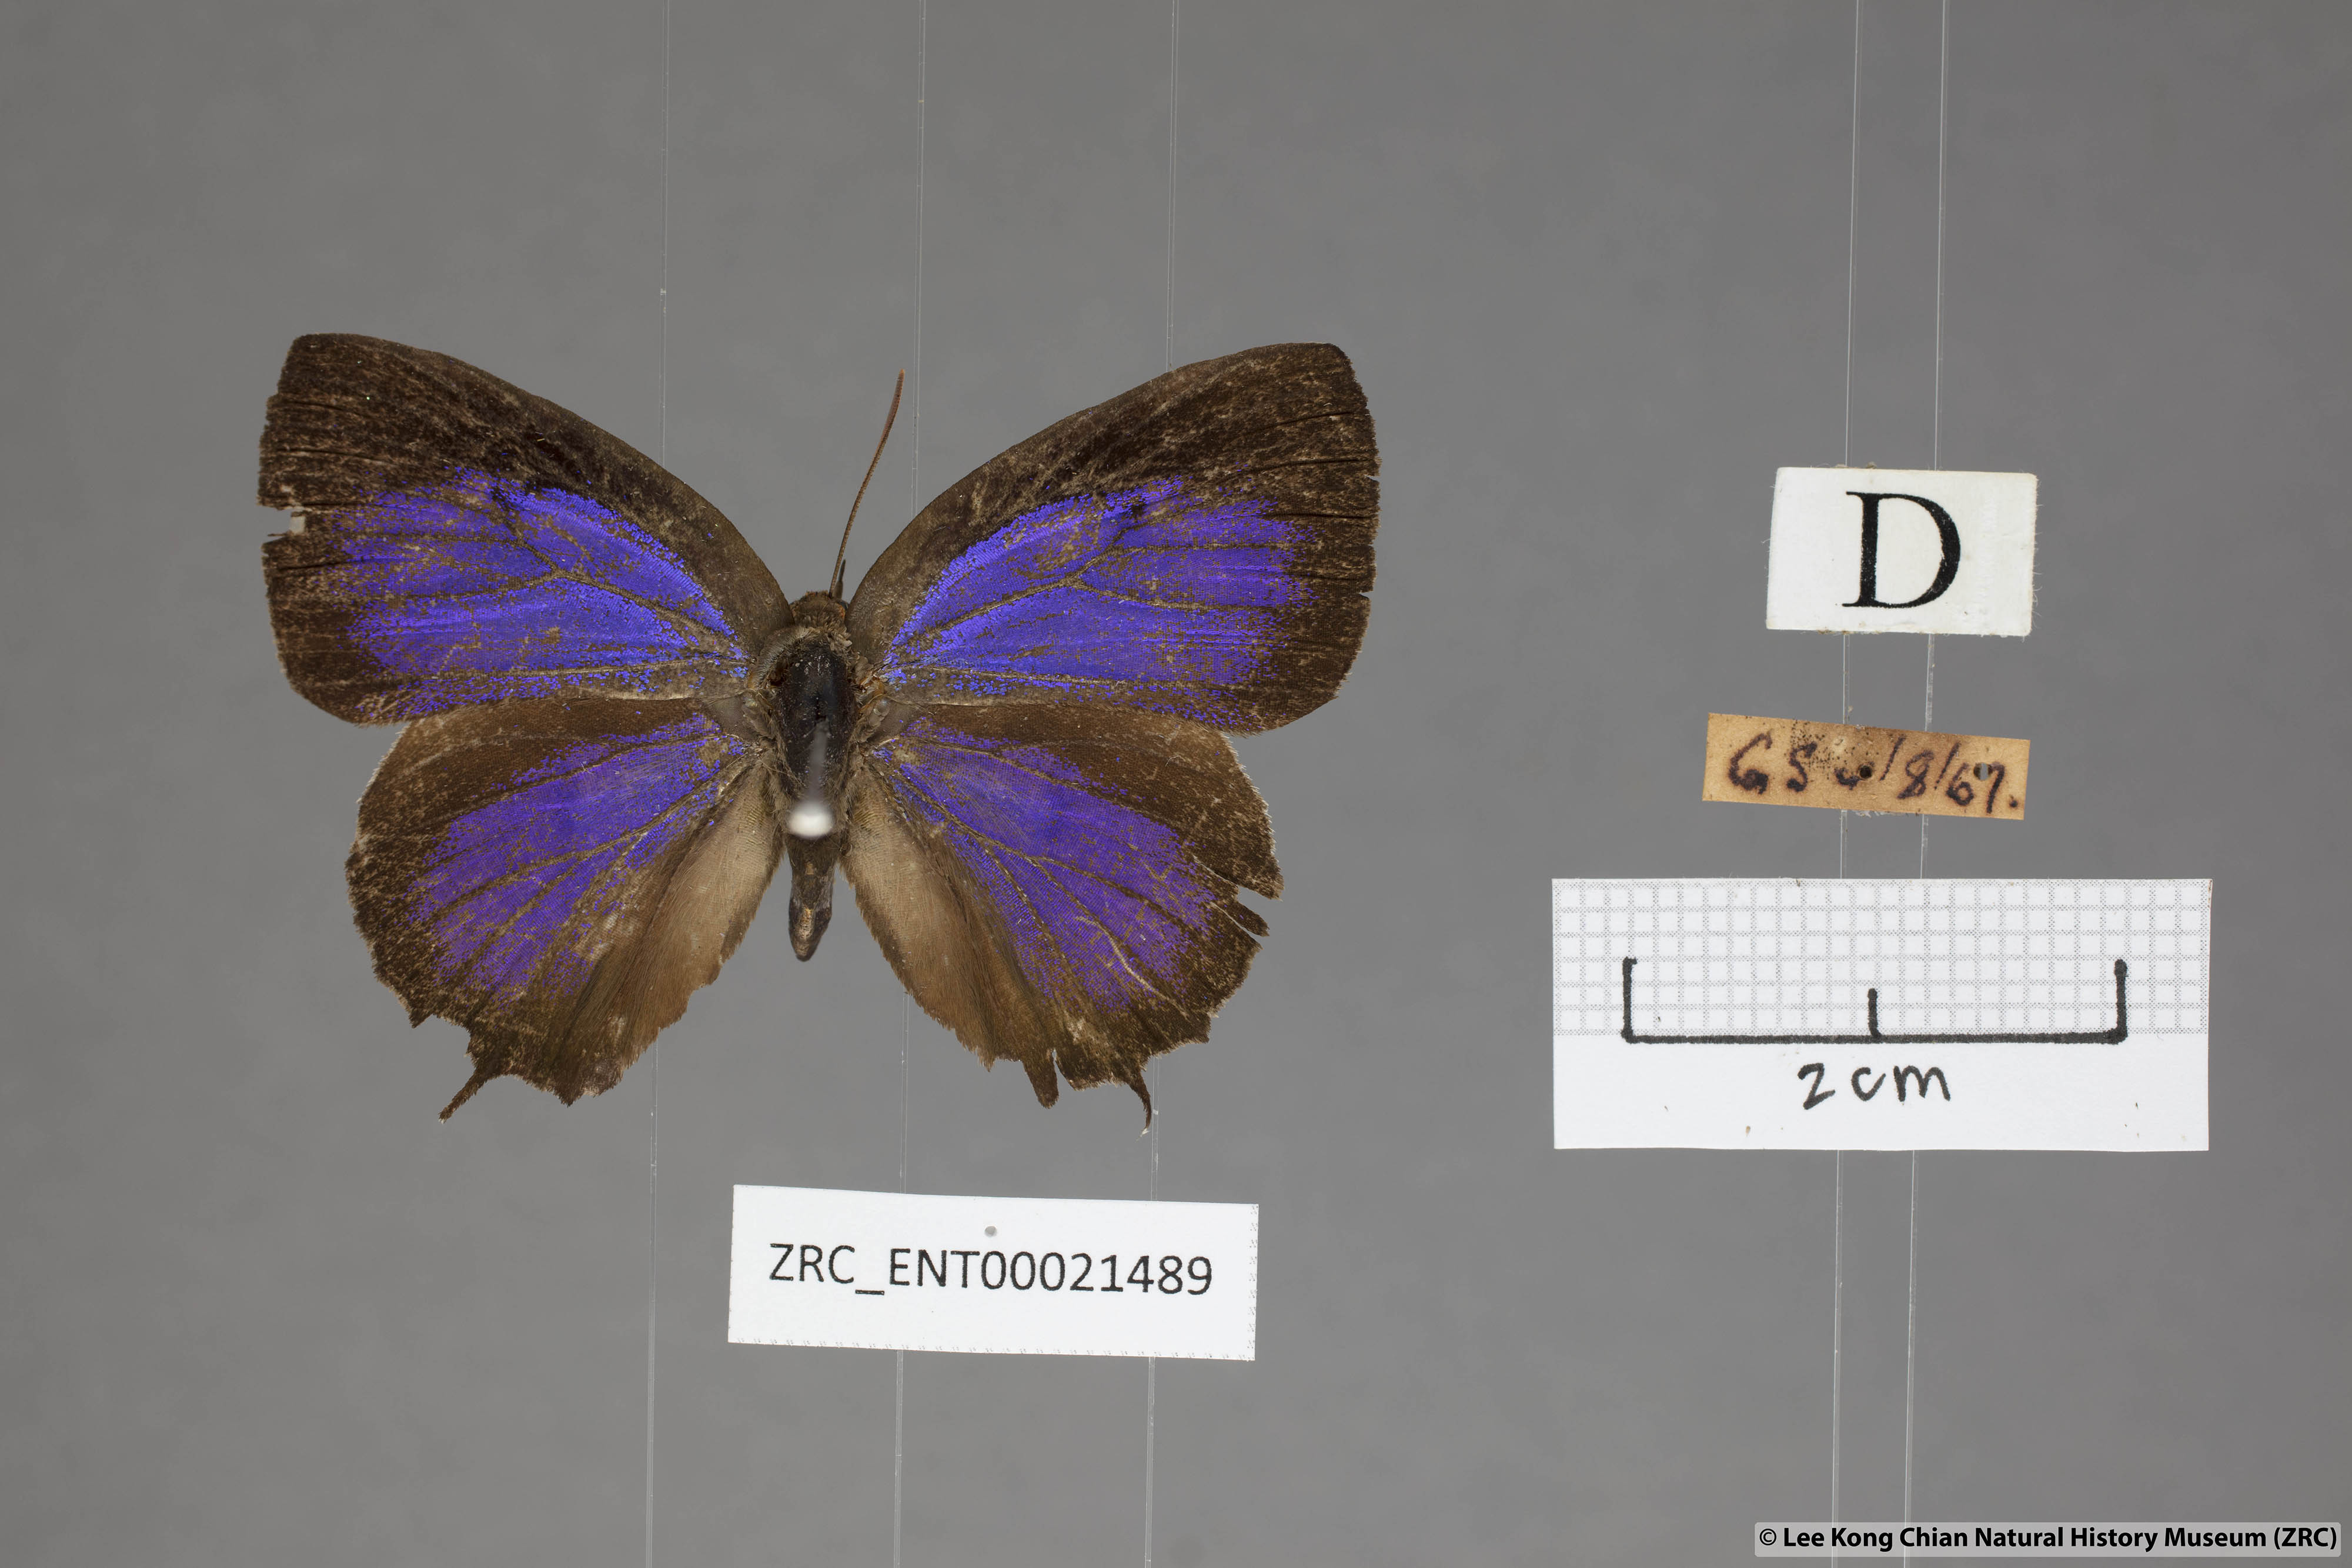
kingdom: Animalia
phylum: Arthropoda
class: Insecta
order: Lepidoptera
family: Lycaenidae
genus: Flos
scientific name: Flos
